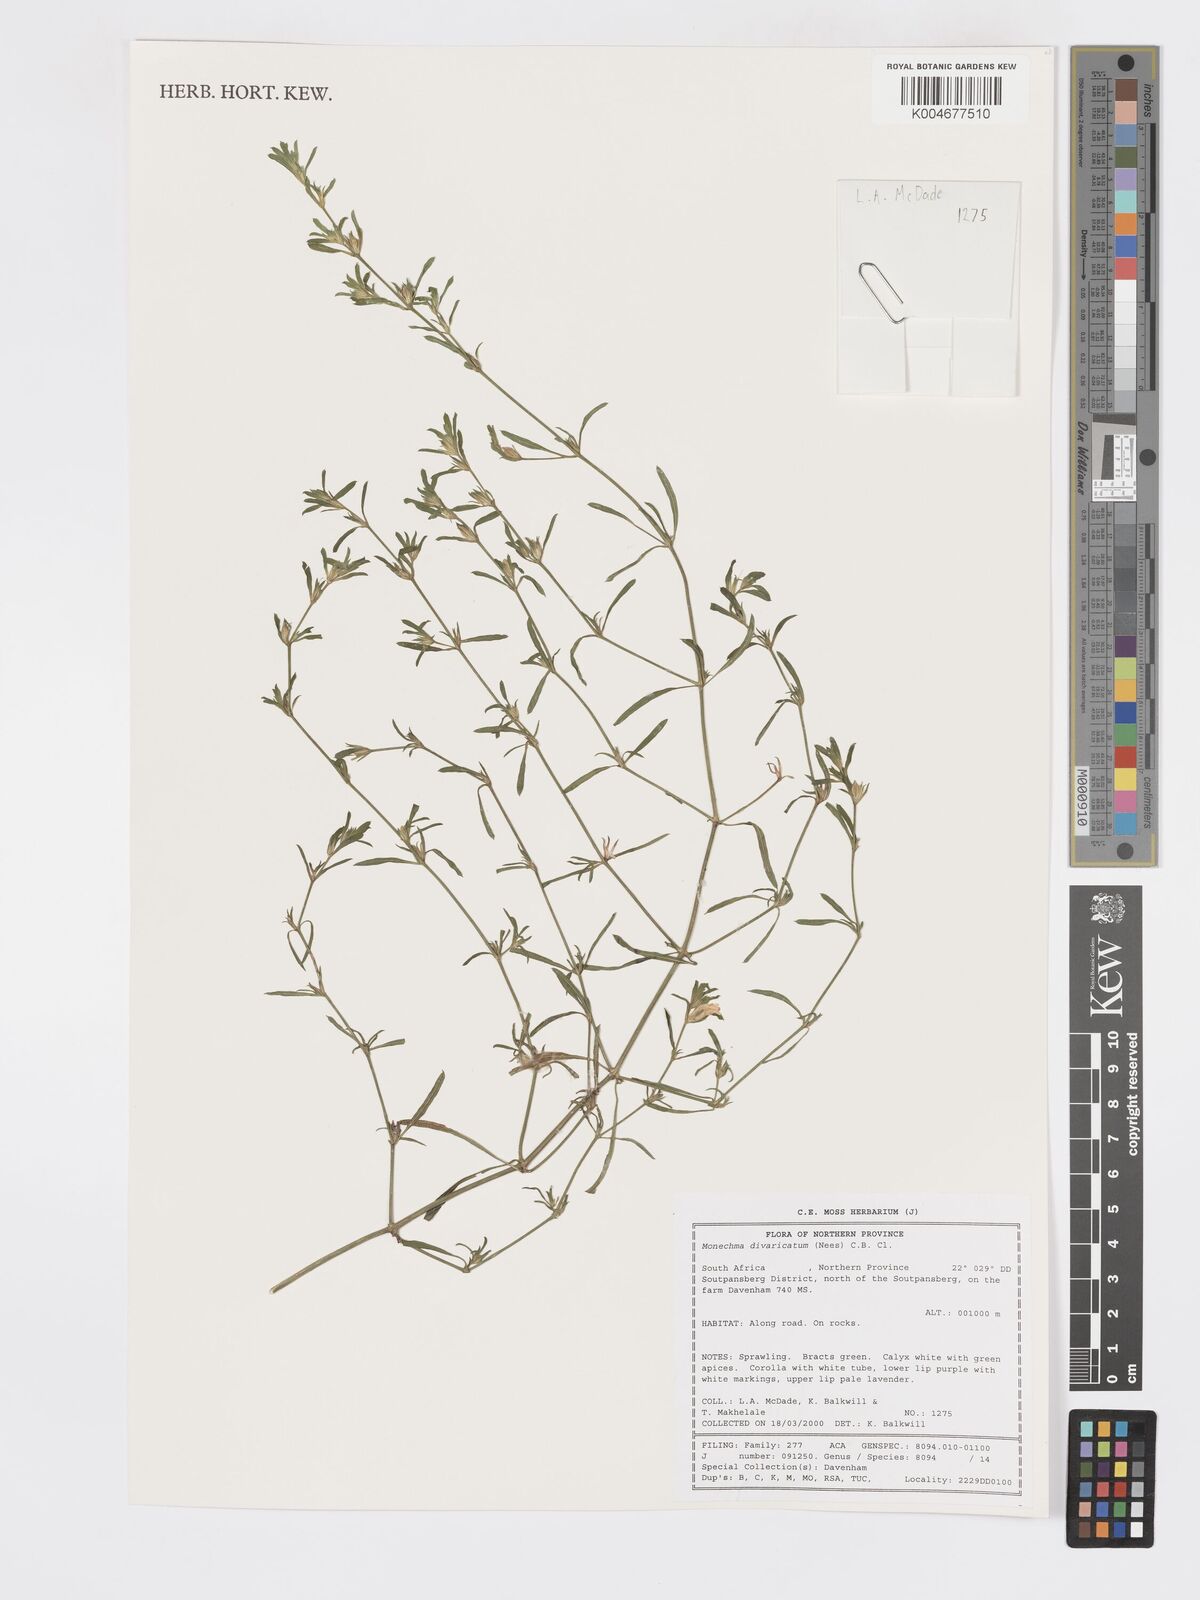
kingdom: Plantae
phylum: Tracheophyta
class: Magnoliopsida
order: Lamiales
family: Acanthaceae
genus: Pogonospermum
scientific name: Pogonospermum
